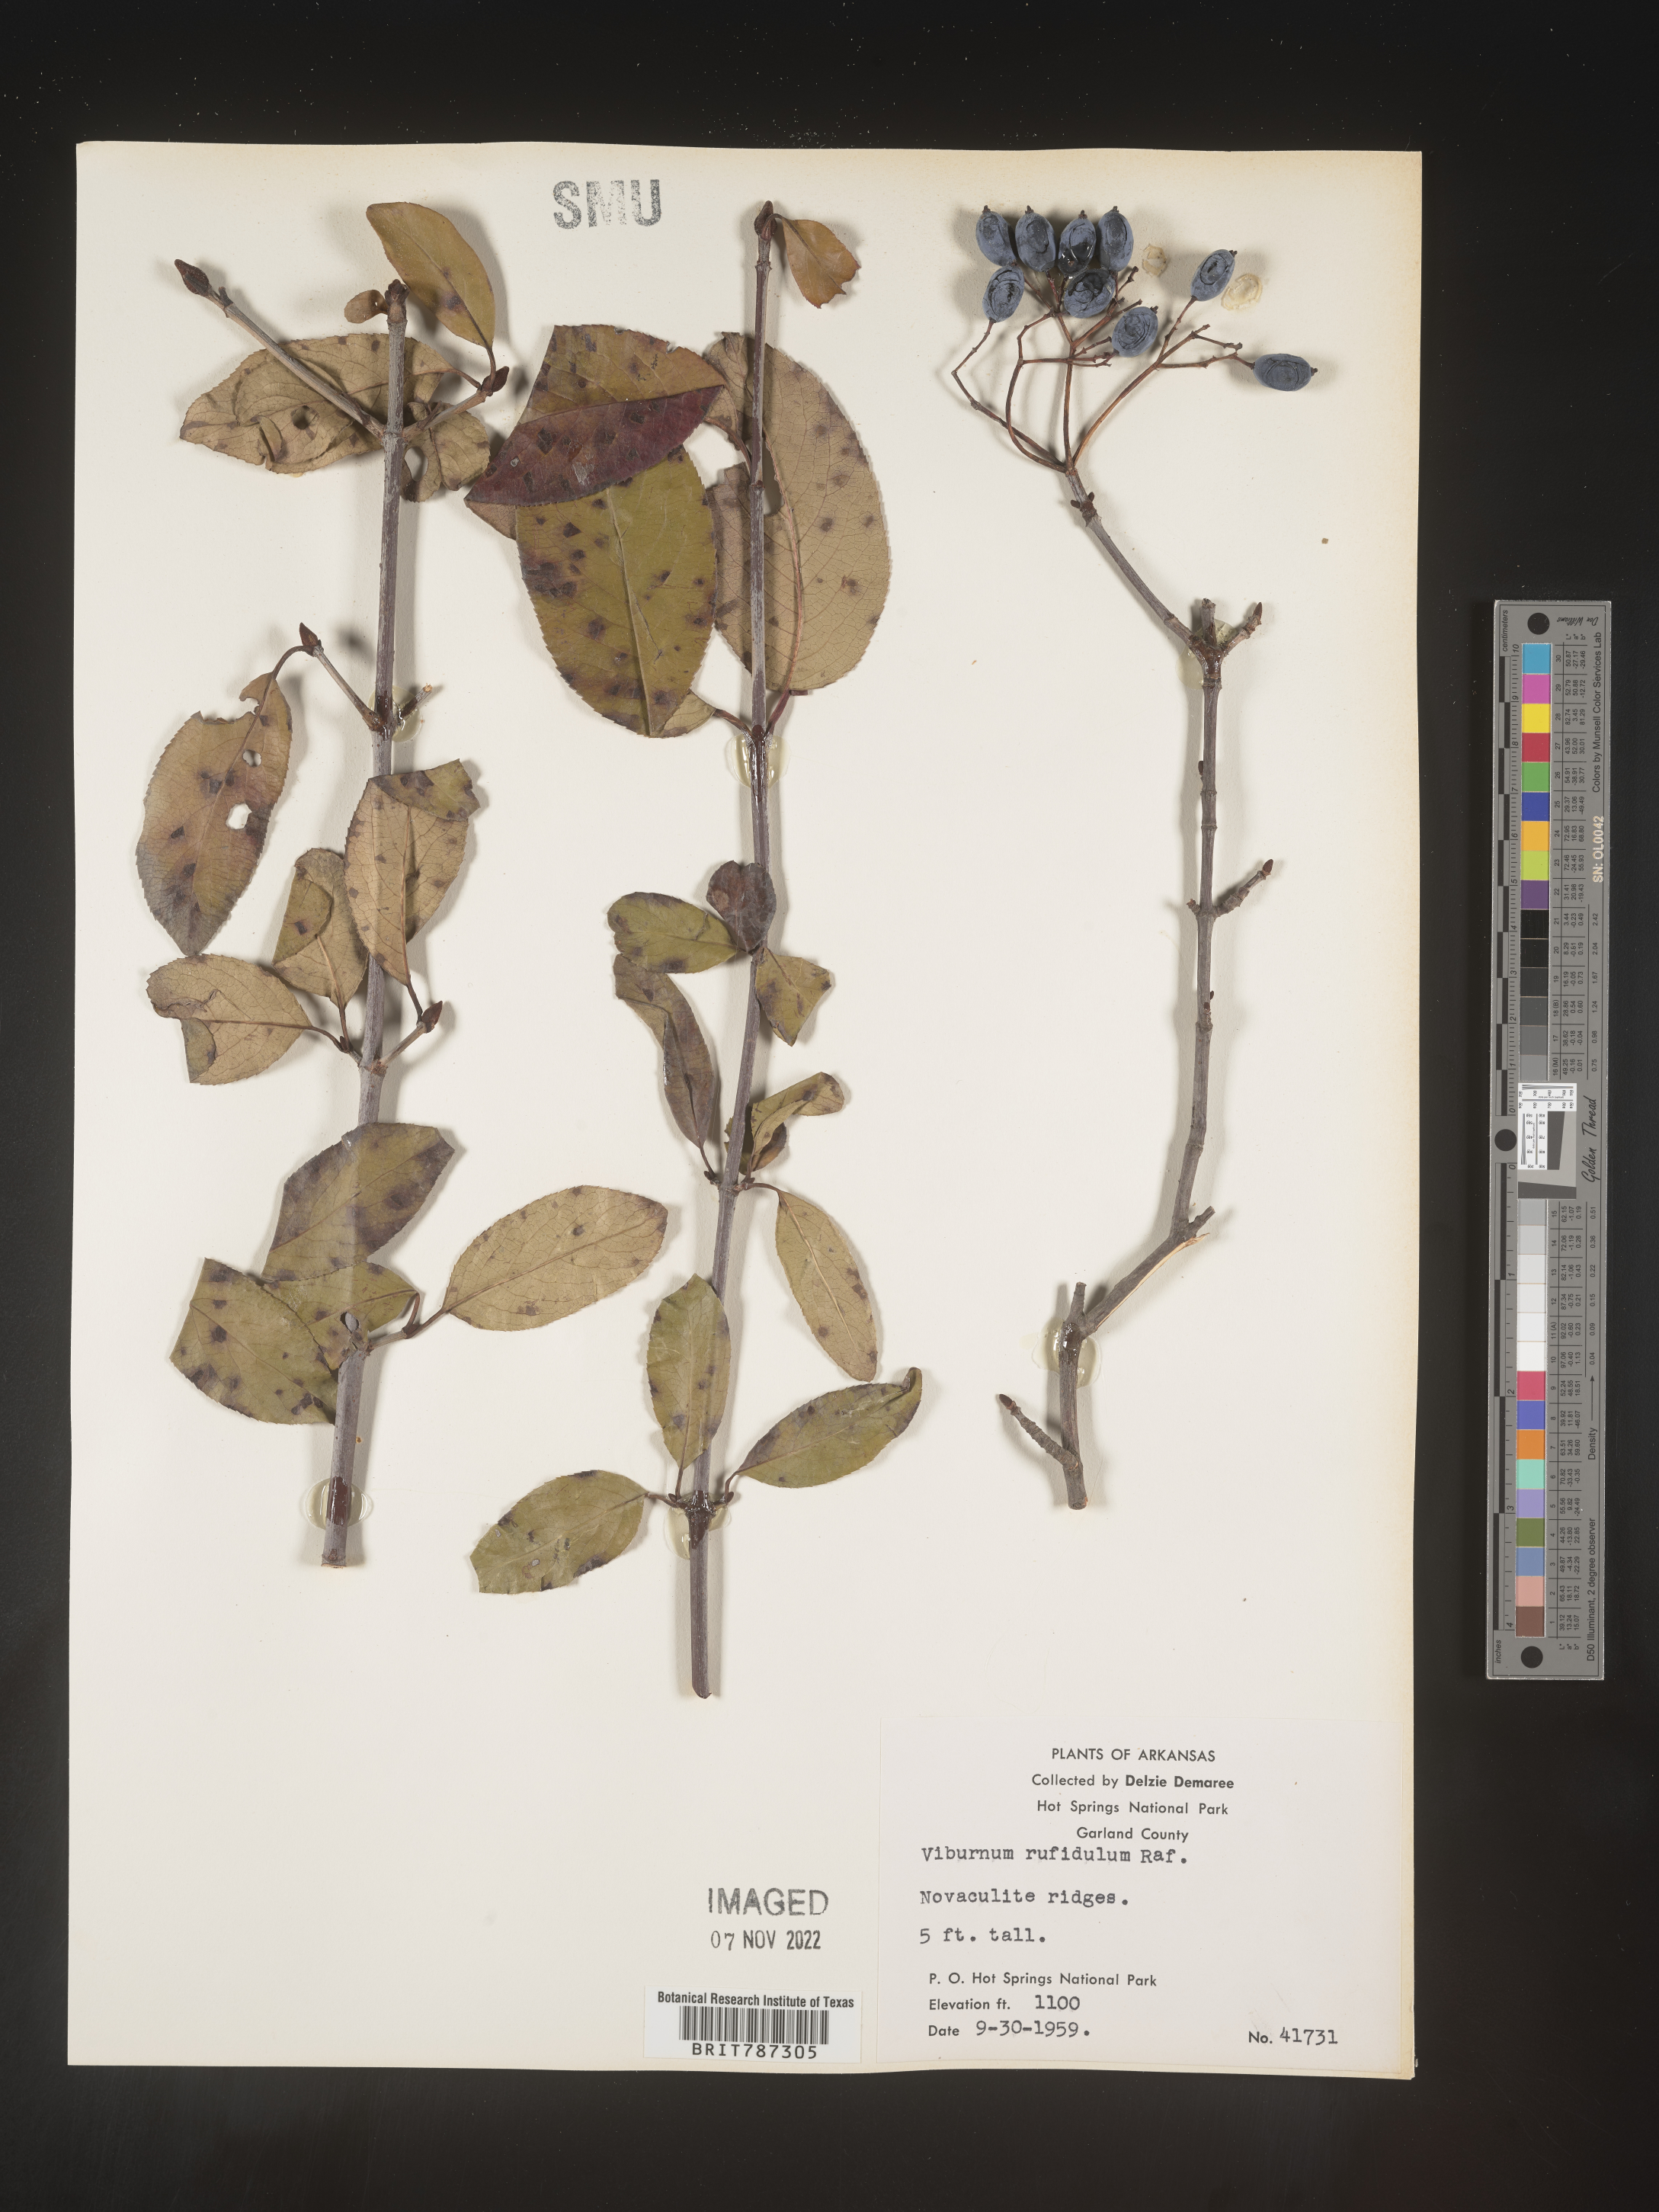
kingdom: Plantae
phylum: Tracheophyta
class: Magnoliopsida
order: Dipsacales
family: Viburnaceae
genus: Viburnum
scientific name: Viburnum rufidulum
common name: Blue haw
